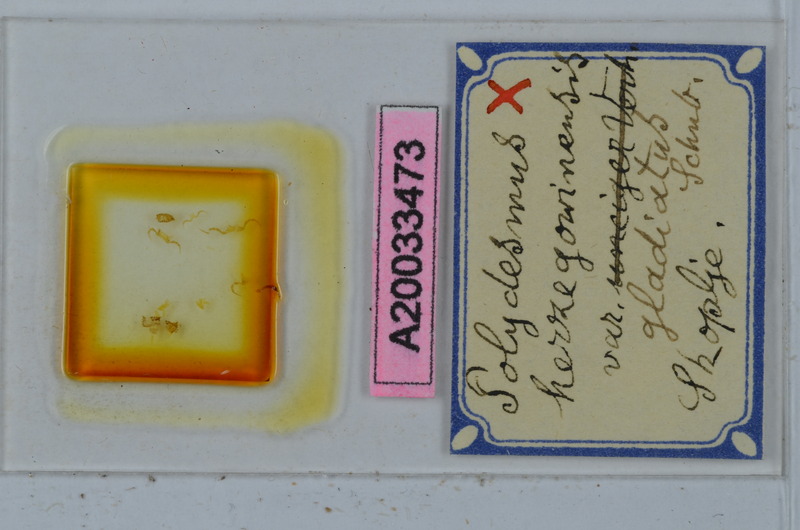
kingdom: Animalia
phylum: Arthropoda
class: Diplopoda
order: Polydesmida
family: Polydesmidae
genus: Polydesmus
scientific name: Polydesmus herzogowinensis
